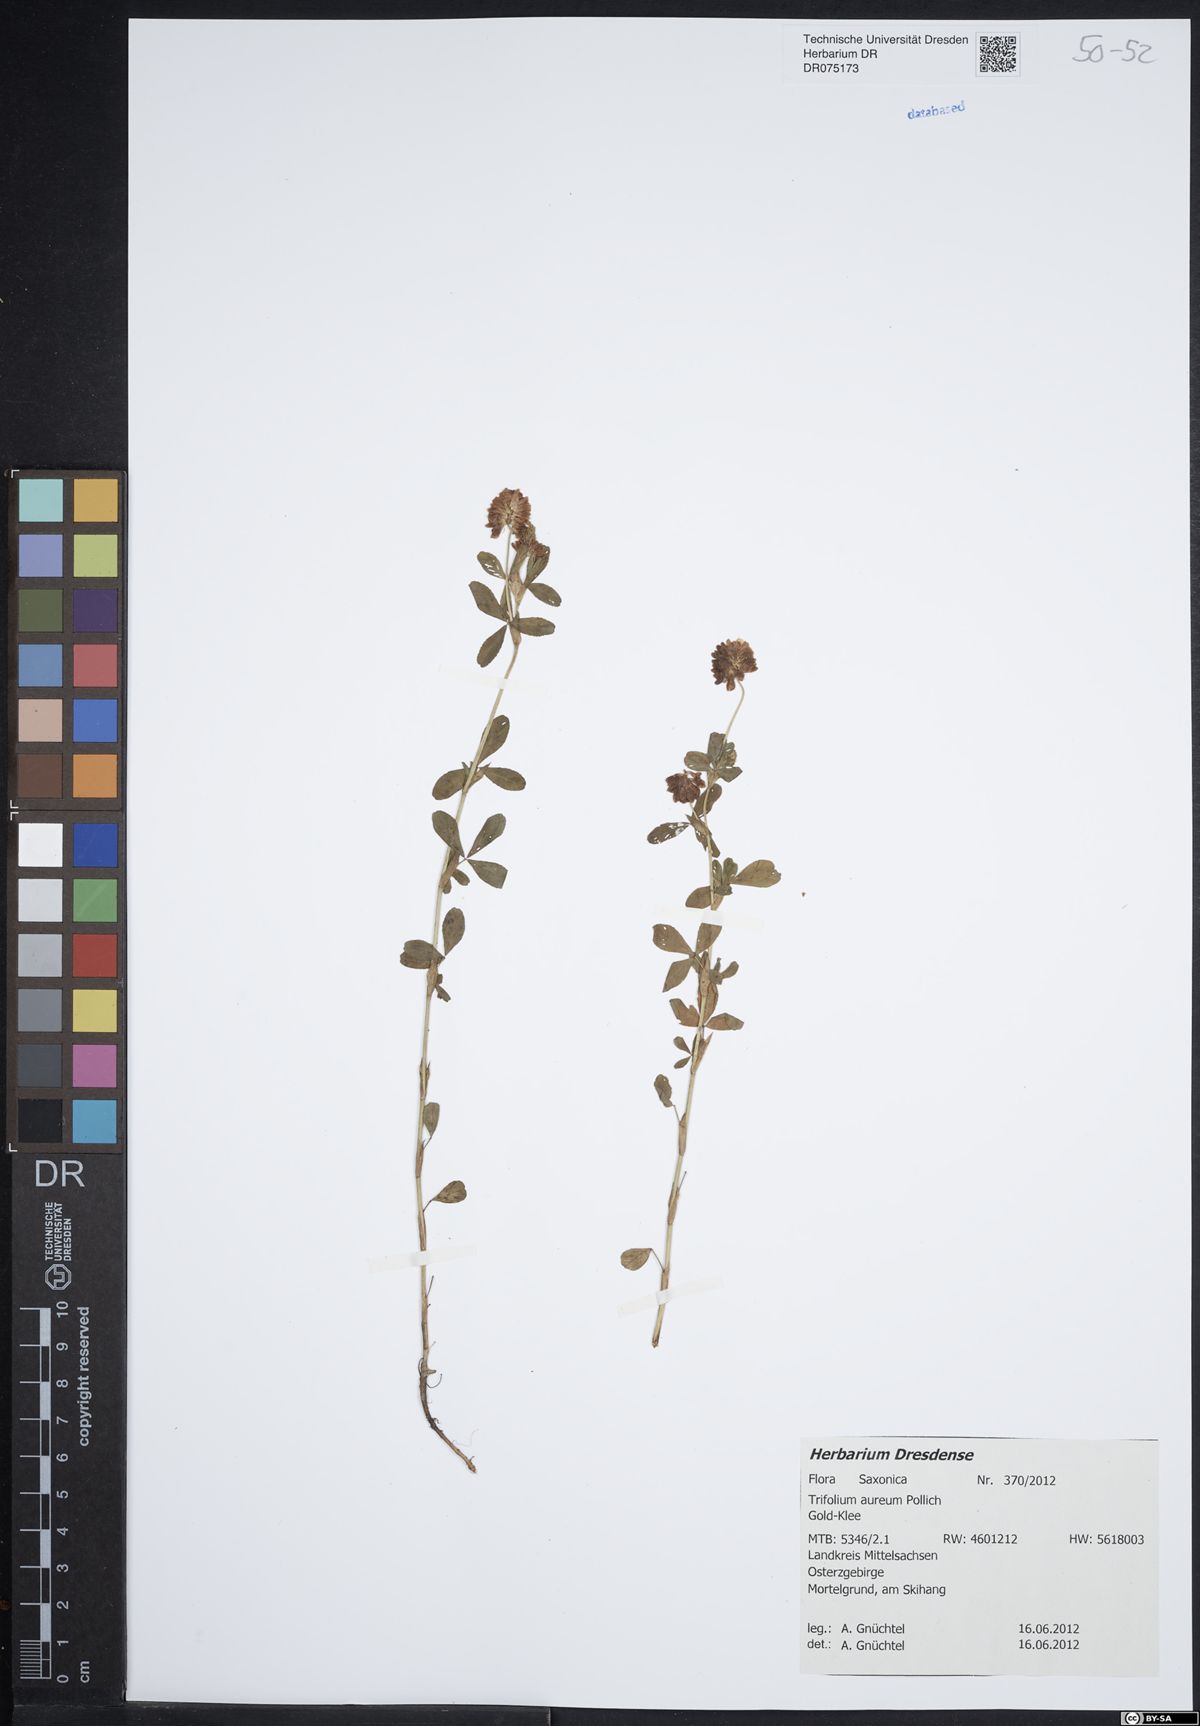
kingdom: Plantae
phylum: Tracheophyta
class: Magnoliopsida
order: Fabales
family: Fabaceae
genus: Trifolium
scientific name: Trifolium aureum
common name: Golden clover
